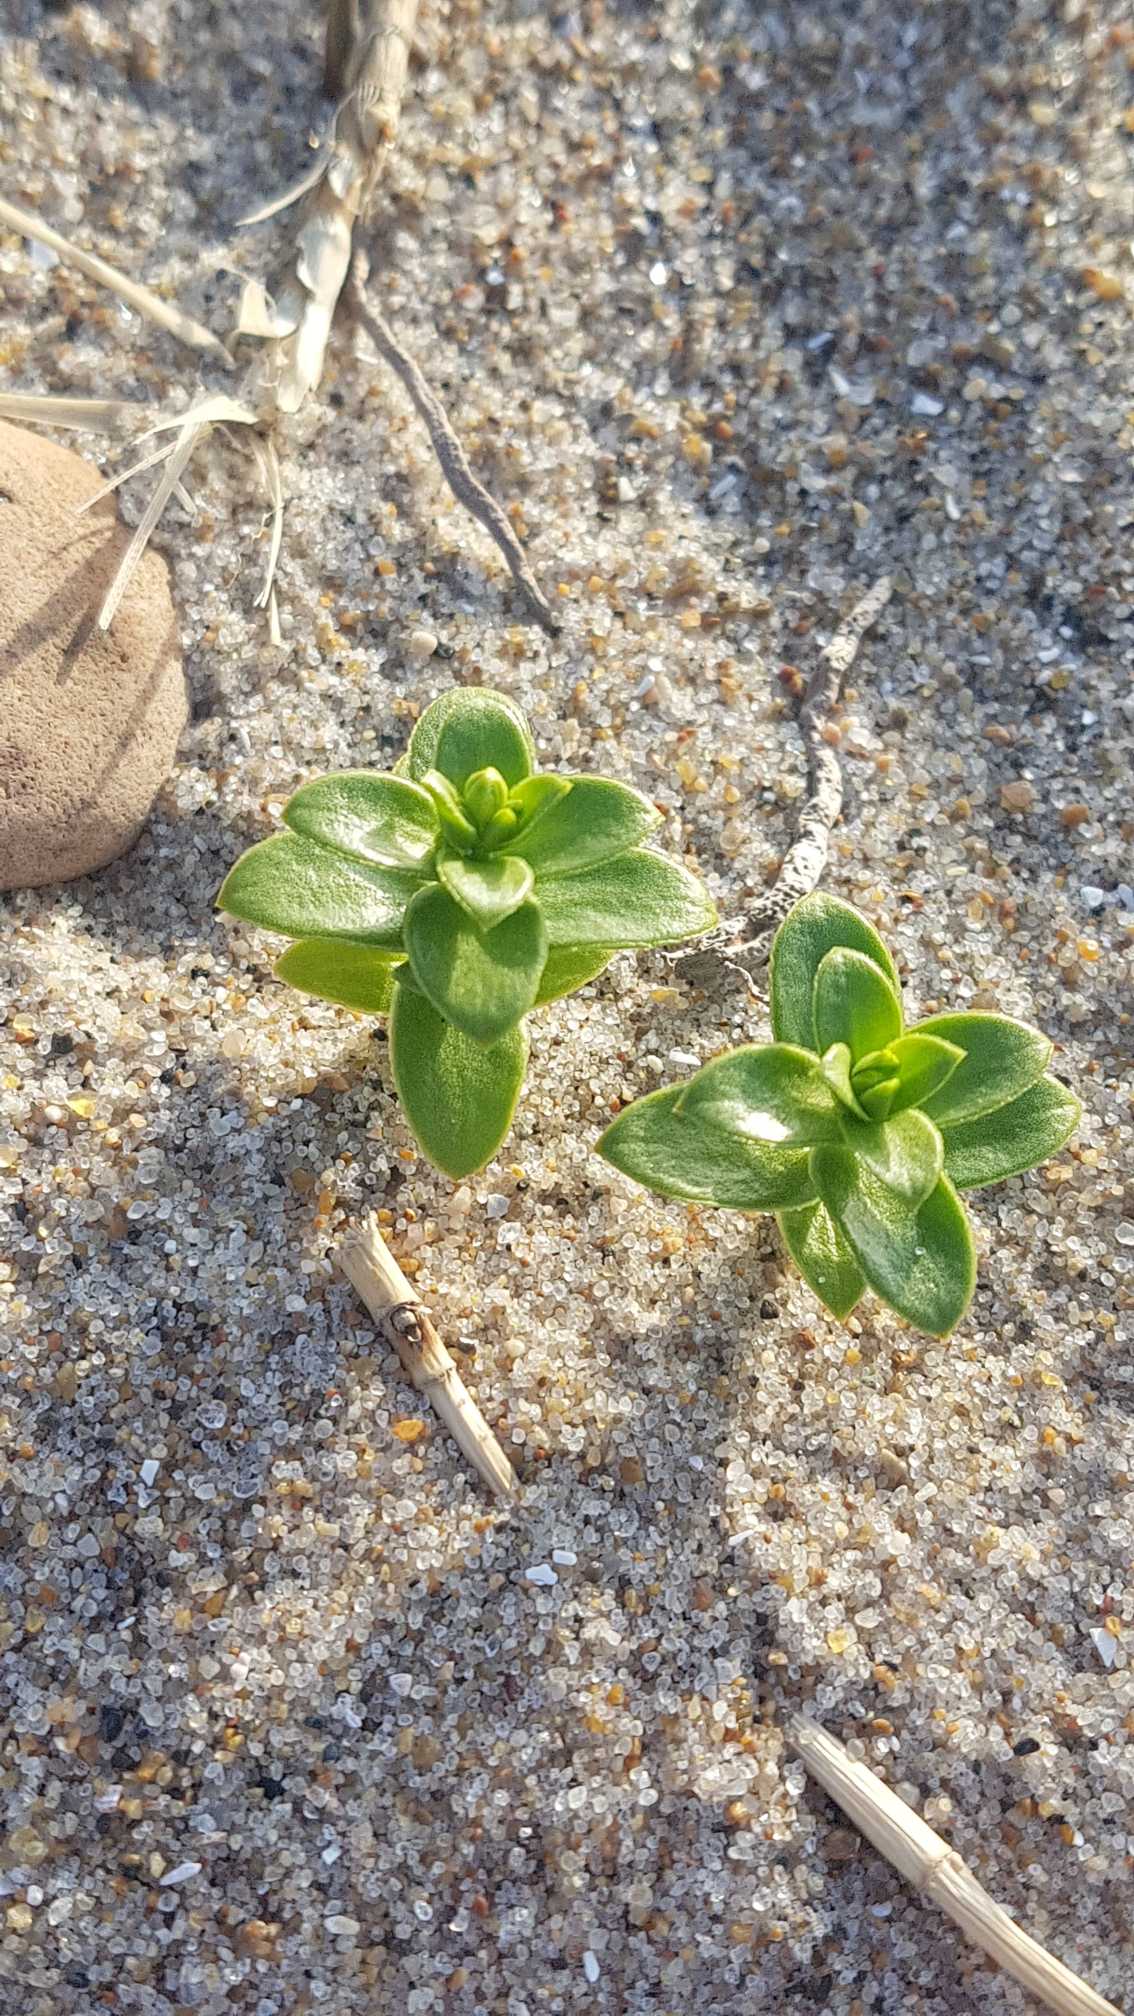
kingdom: Plantae
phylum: Tracheophyta
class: Magnoliopsida
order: Caryophyllales
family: Caryophyllaceae
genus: Honckenya
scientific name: Honckenya peploides
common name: Strandarve
